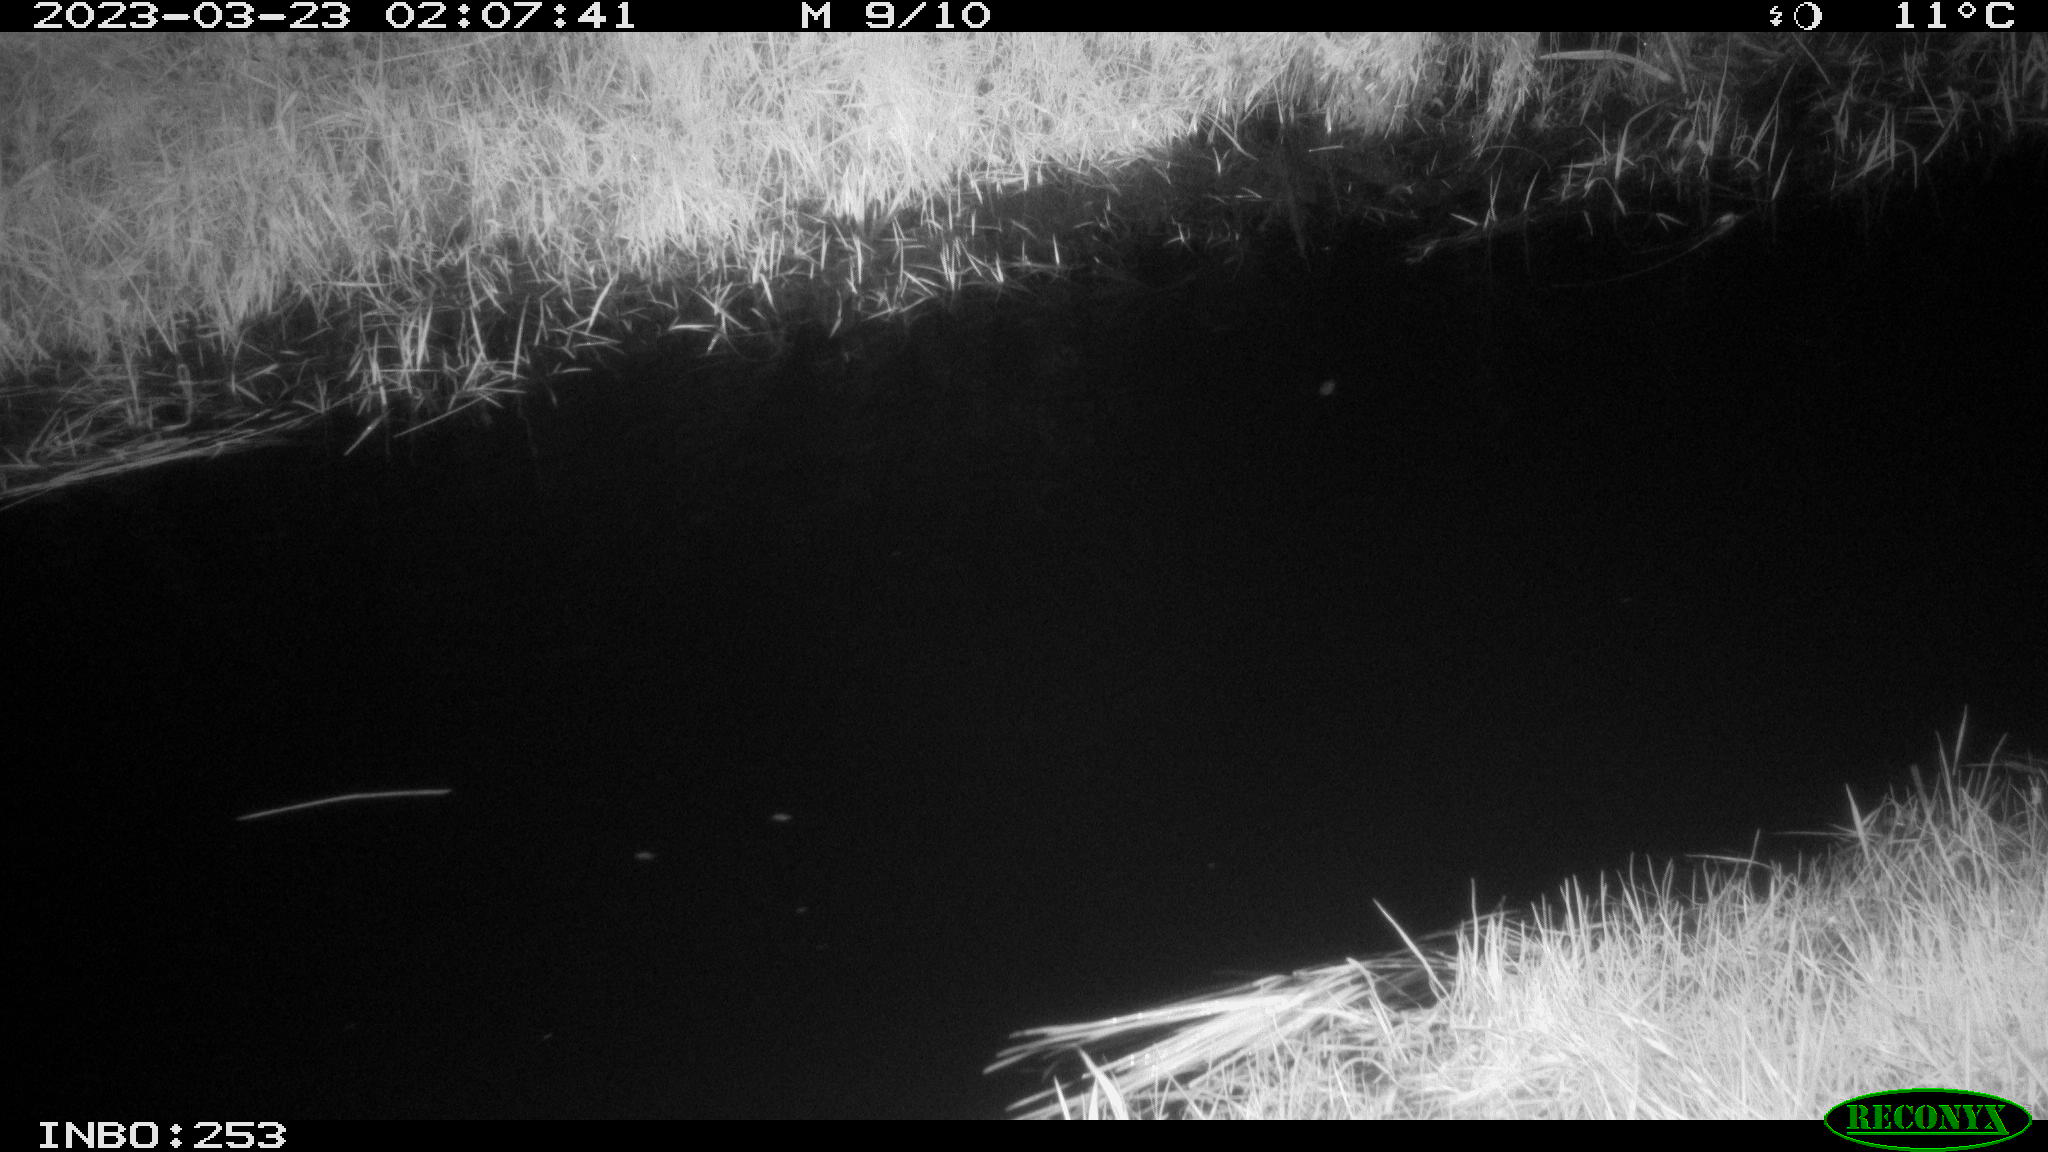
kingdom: Animalia
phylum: Chordata
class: Aves
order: Anseriformes
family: Anatidae
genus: Anas
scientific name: Anas
